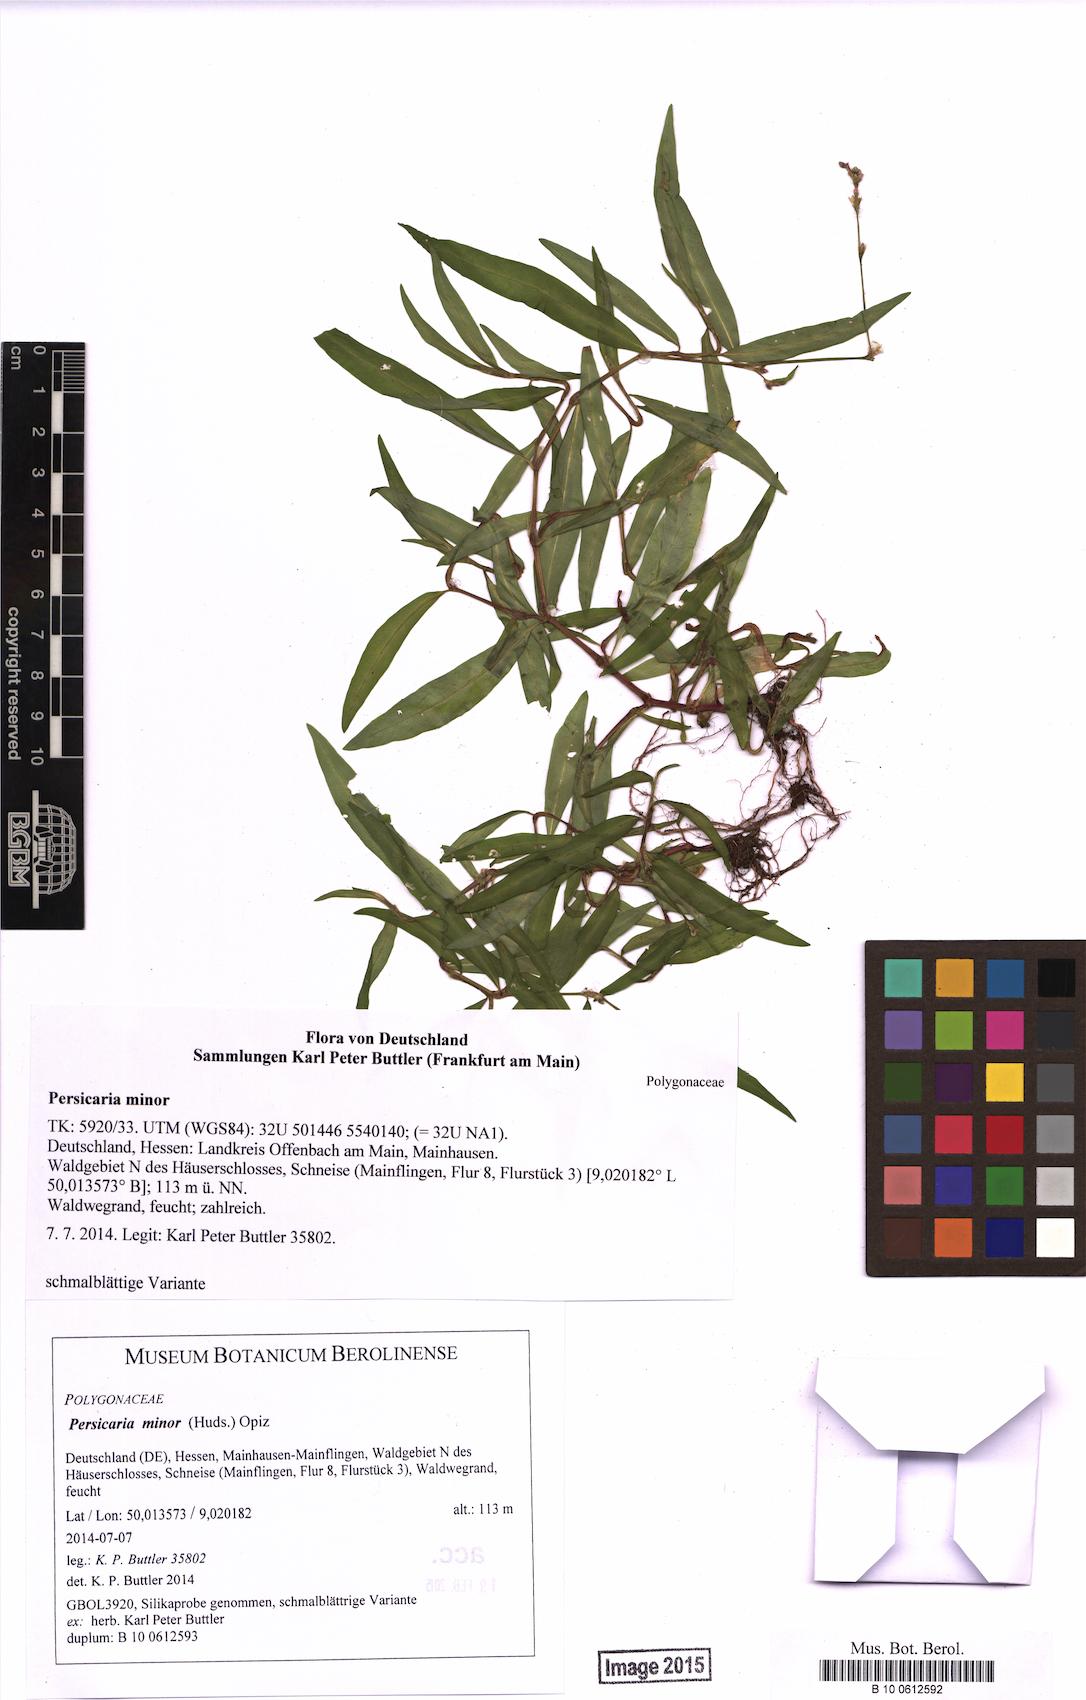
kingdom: Plantae
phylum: Tracheophyta
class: Magnoliopsida
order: Caryophyllales
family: Polygonaceae
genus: Persicaria
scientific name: Persicaria minor
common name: Small water-pepper
